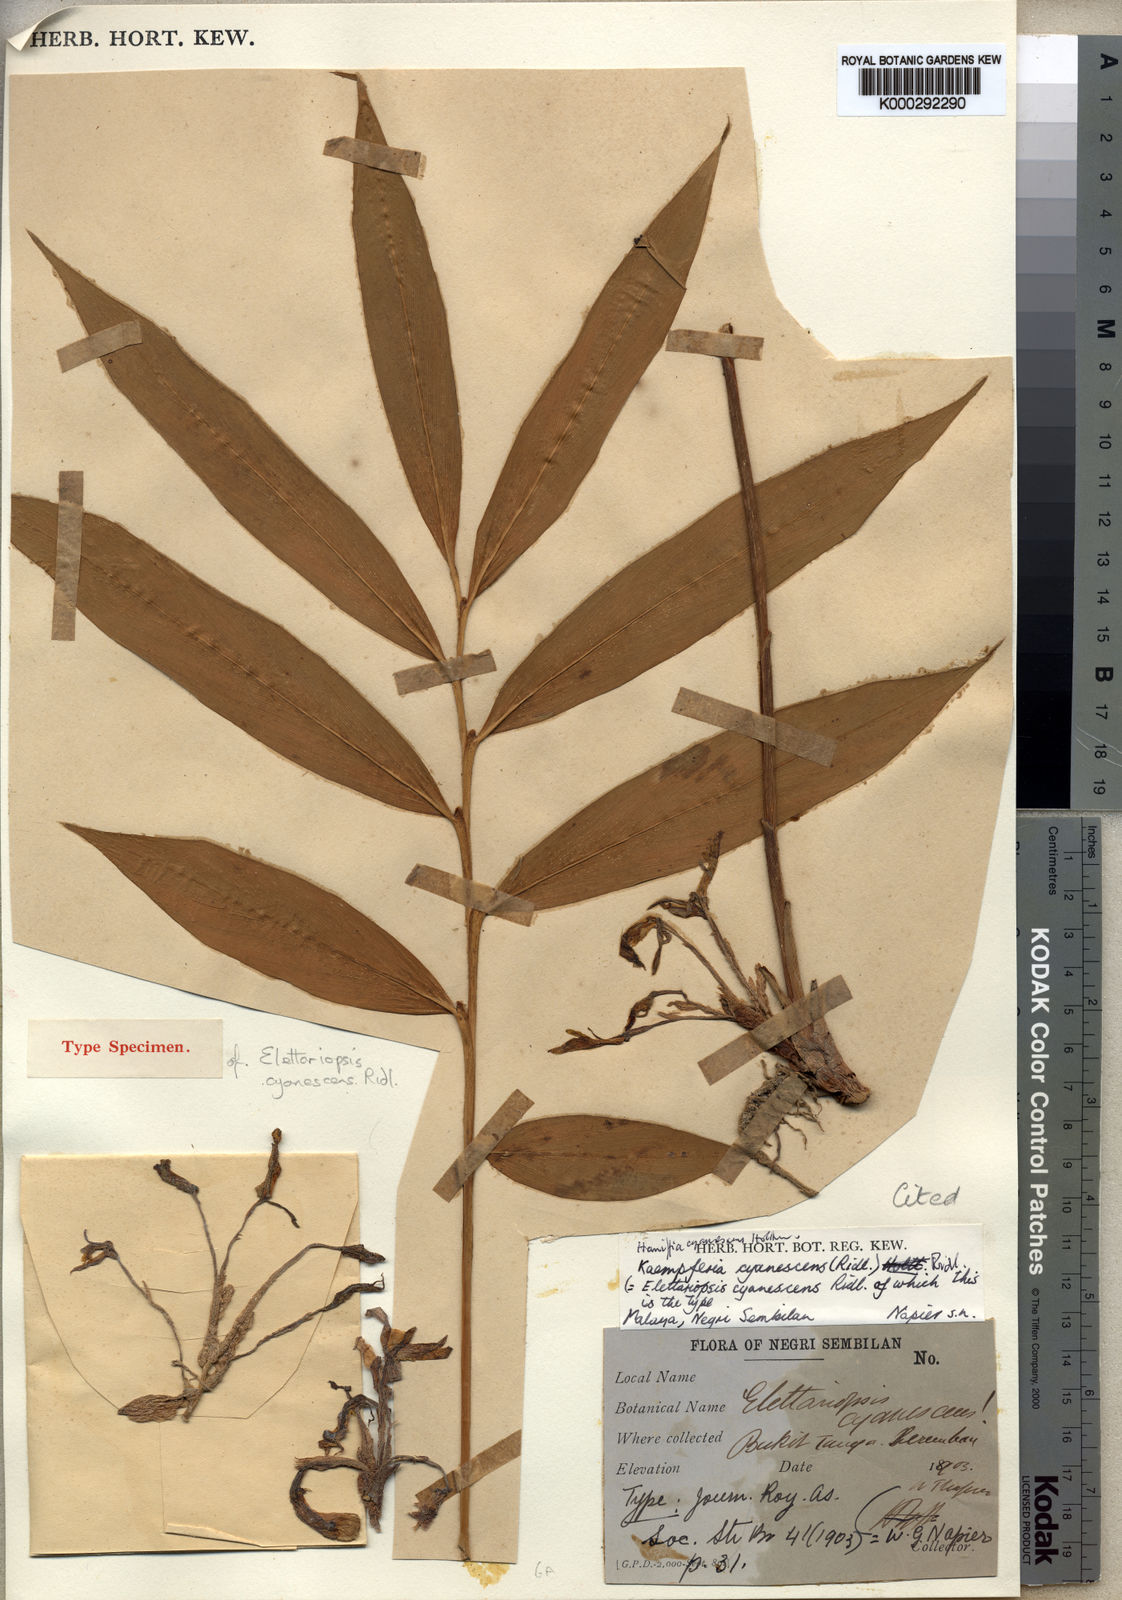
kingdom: Plantae
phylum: Tracheophyta
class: Liliopsida
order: Zingiberales
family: Zingiberaceae
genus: Haniffia
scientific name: Haniffia cyanescens
